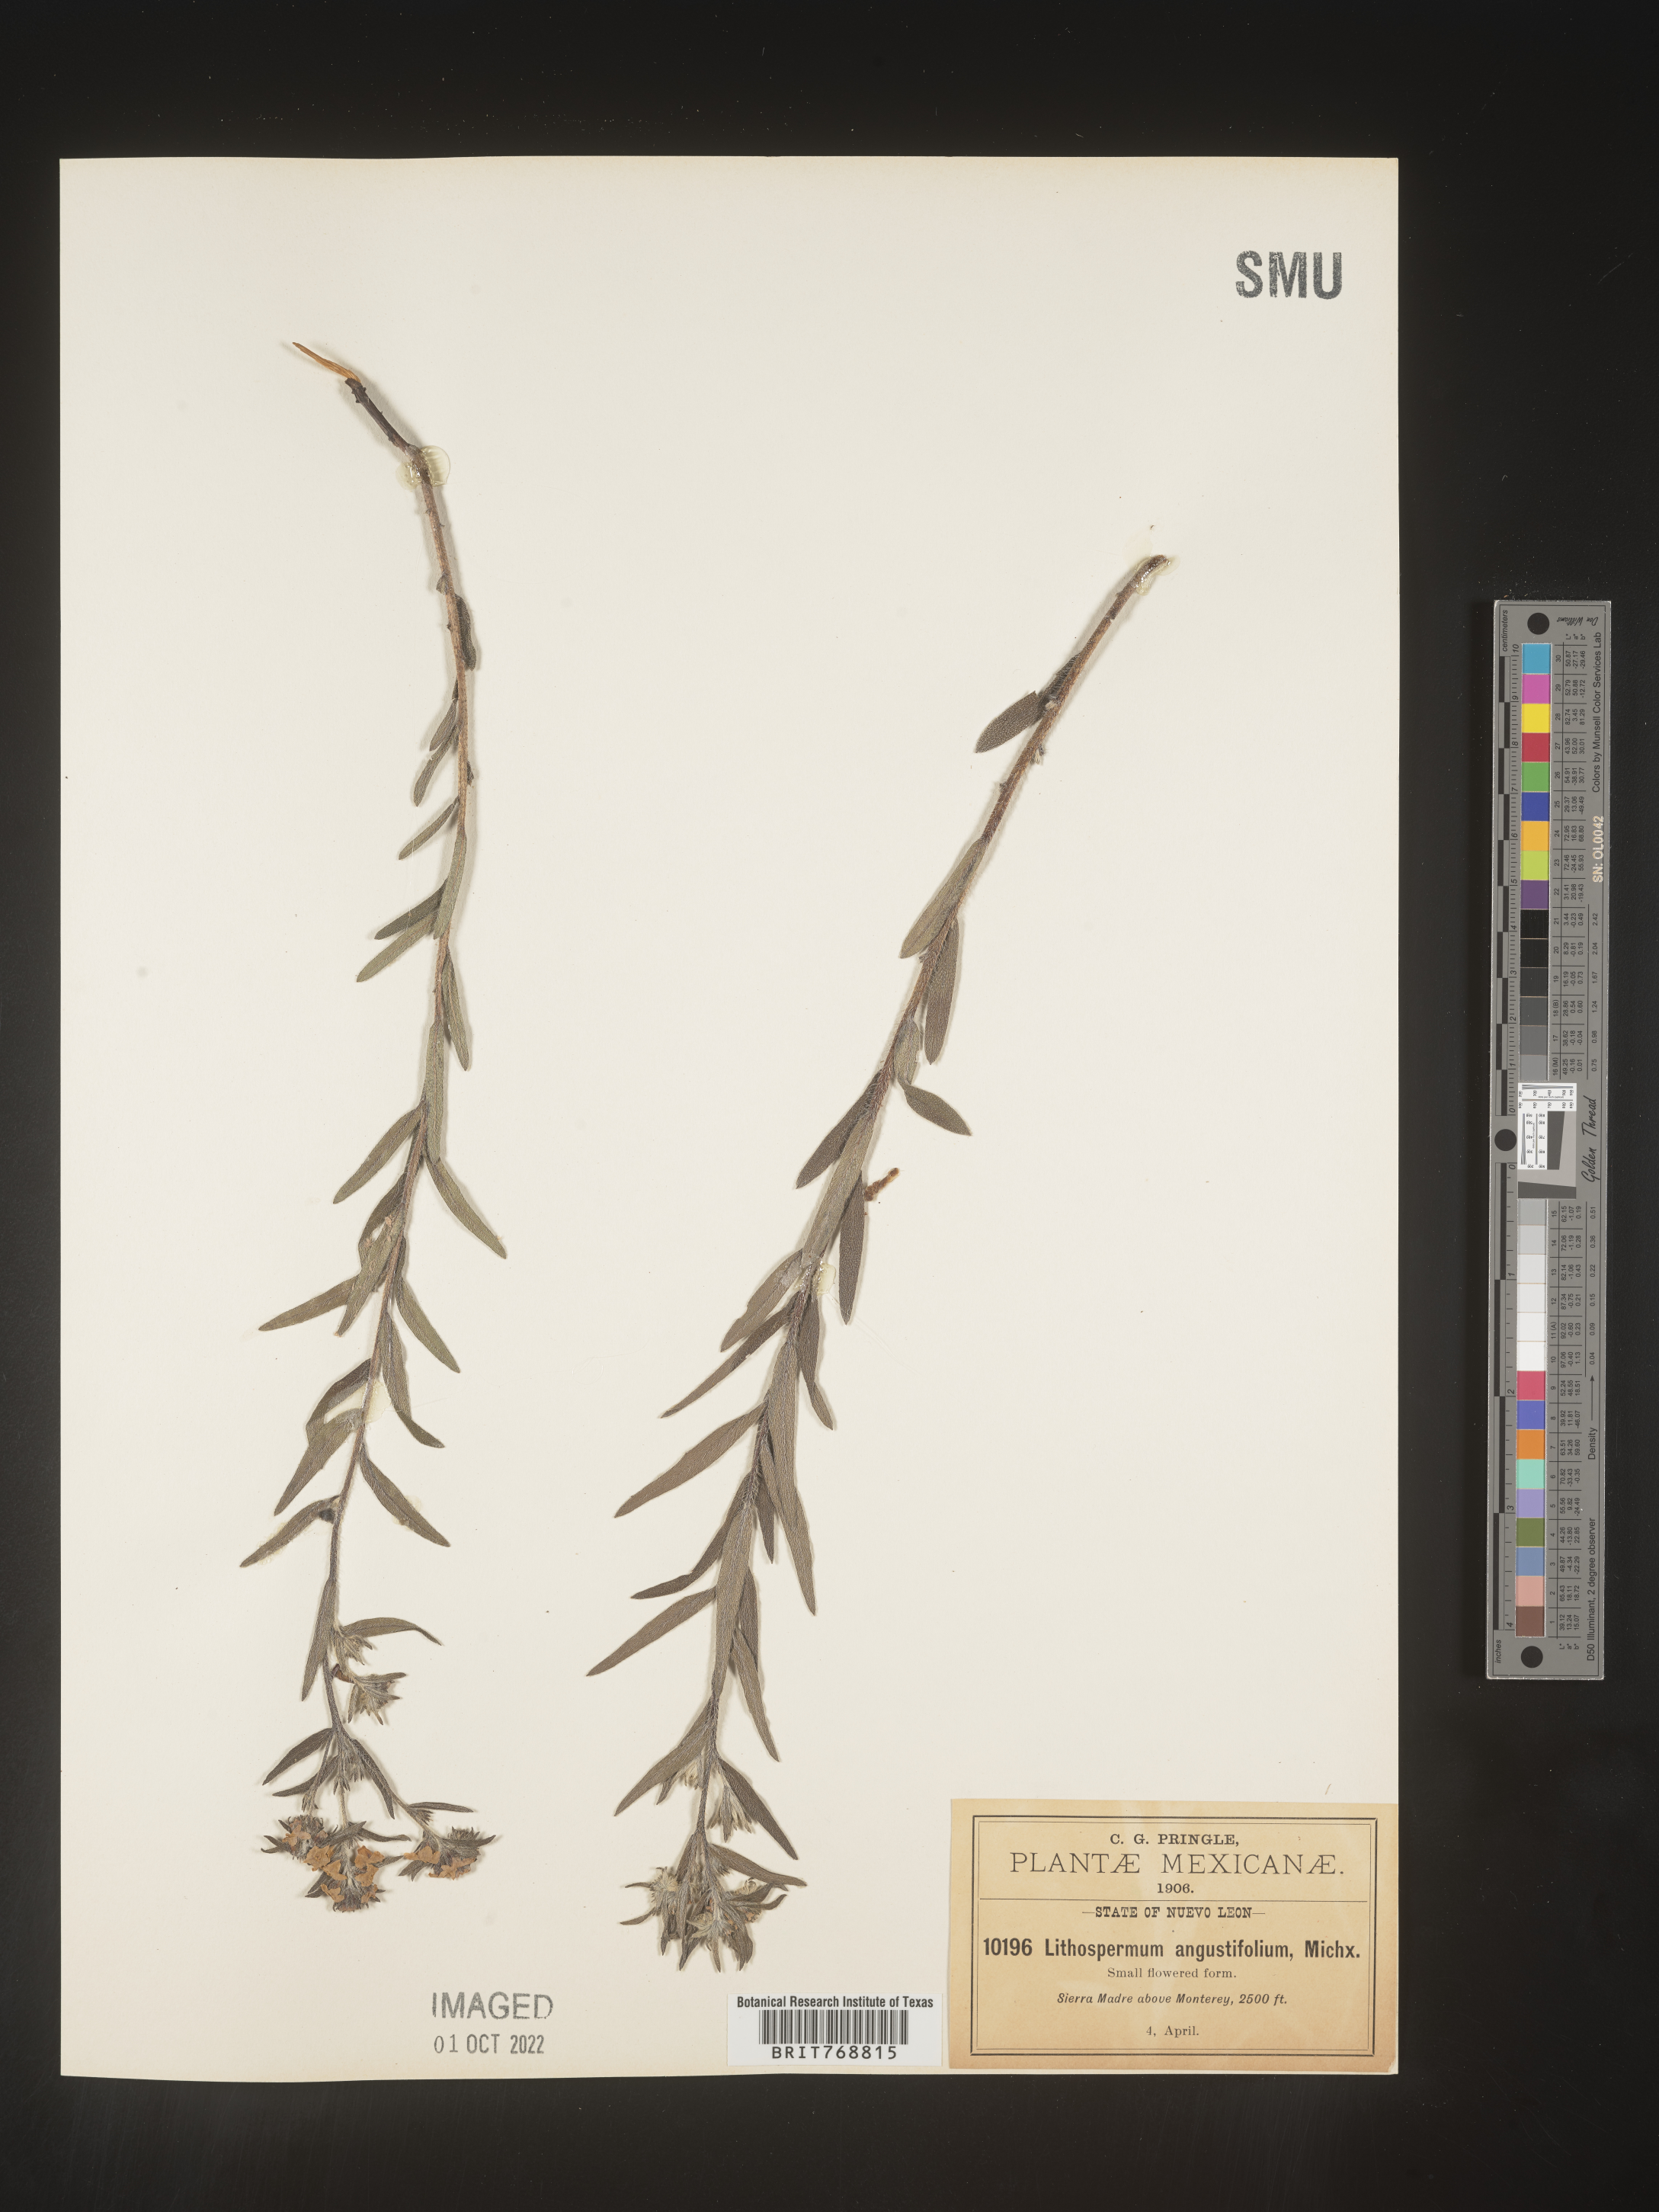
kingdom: Plantae
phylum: Tracheophyta
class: Magnoliopsida
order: Boraginales
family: Boraginaceae
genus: Lithospermum
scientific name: Lithospermum
